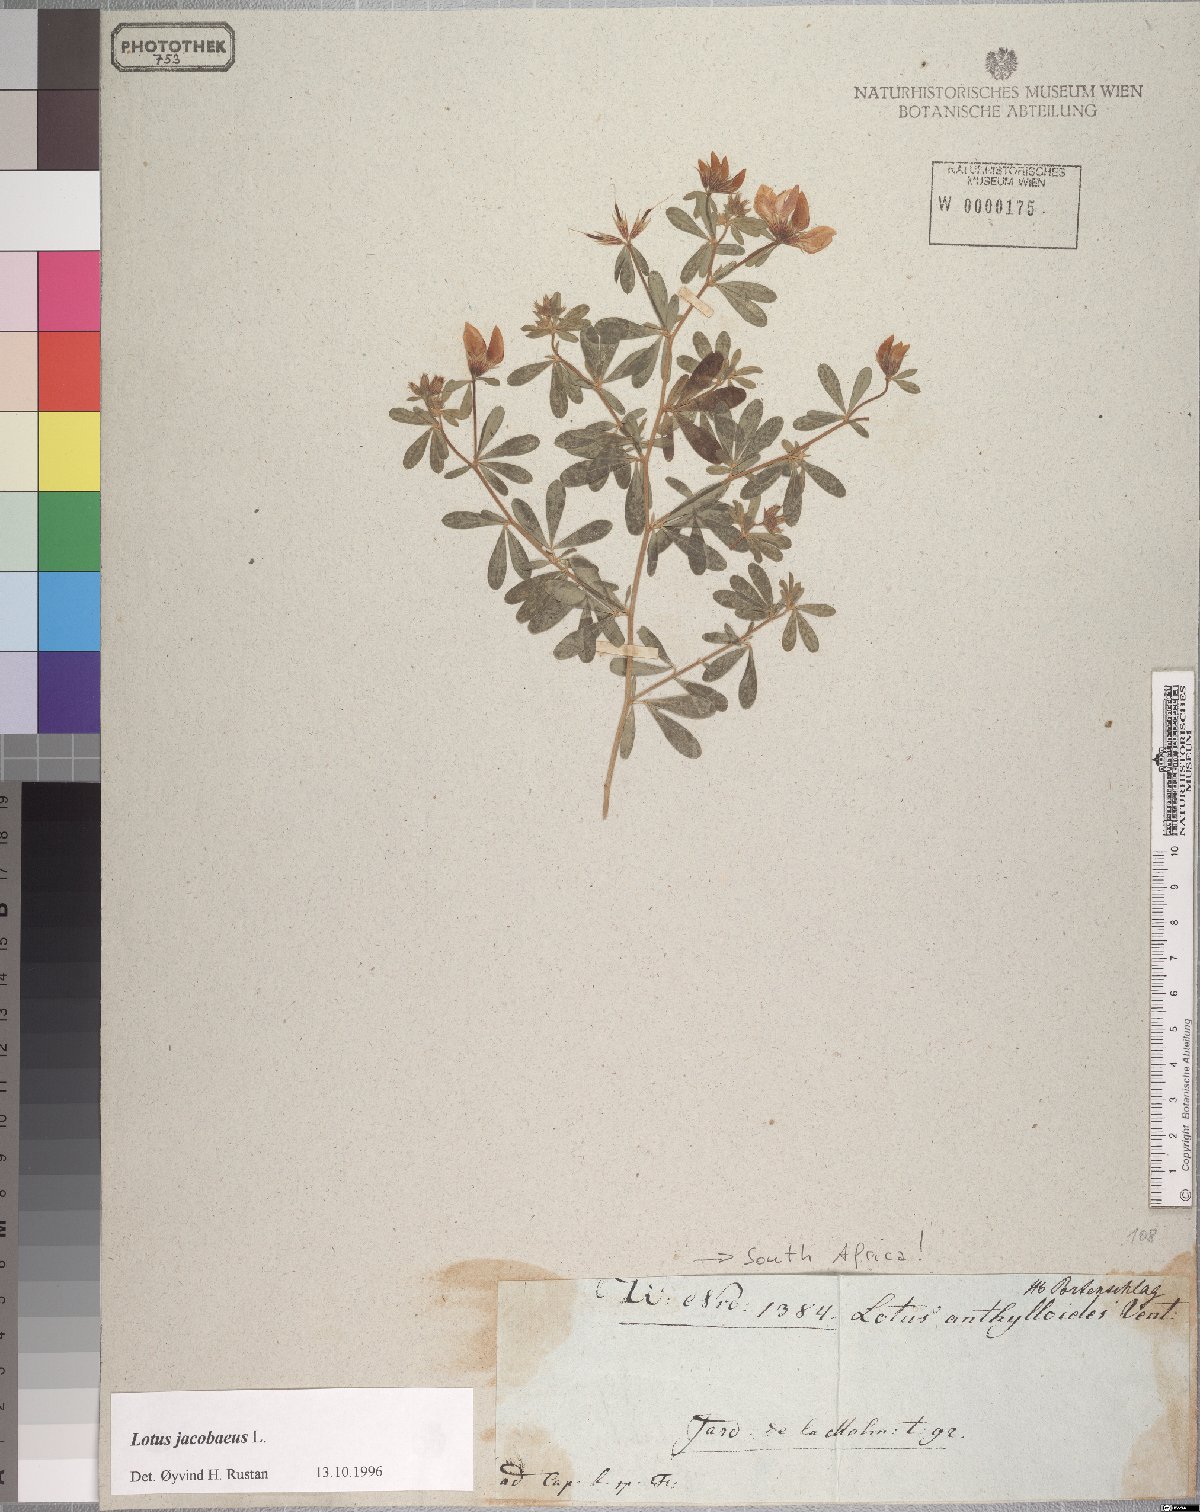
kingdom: Plantae
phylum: Tracheophyta
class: Magnoliopsida
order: Fabales
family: Fabaceae
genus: Lotus
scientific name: Lotus jacobaeus
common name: St. james's trefoil
